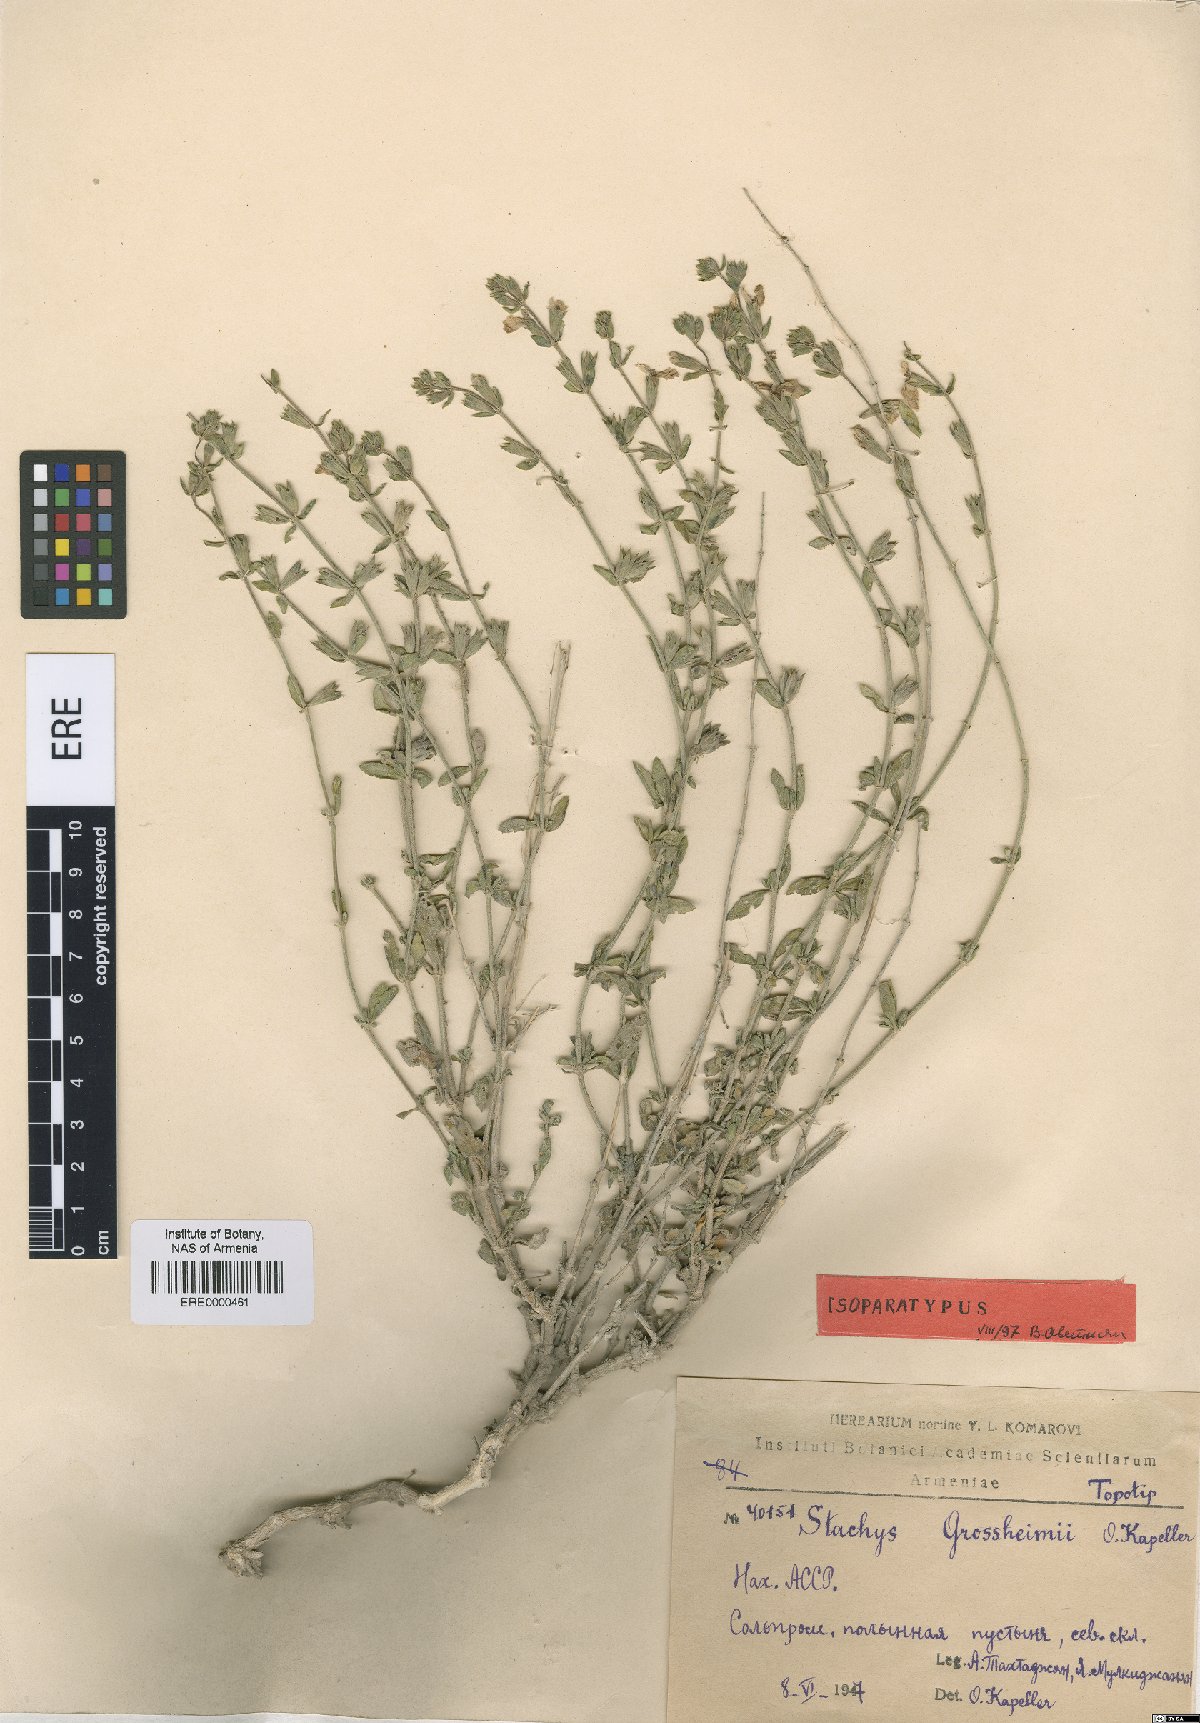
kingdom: Plantae
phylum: Tracheophyta
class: Magnoliopsida
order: Lamiales
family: Lamiaceae
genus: Stachys
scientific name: Stachys fruticulosa
